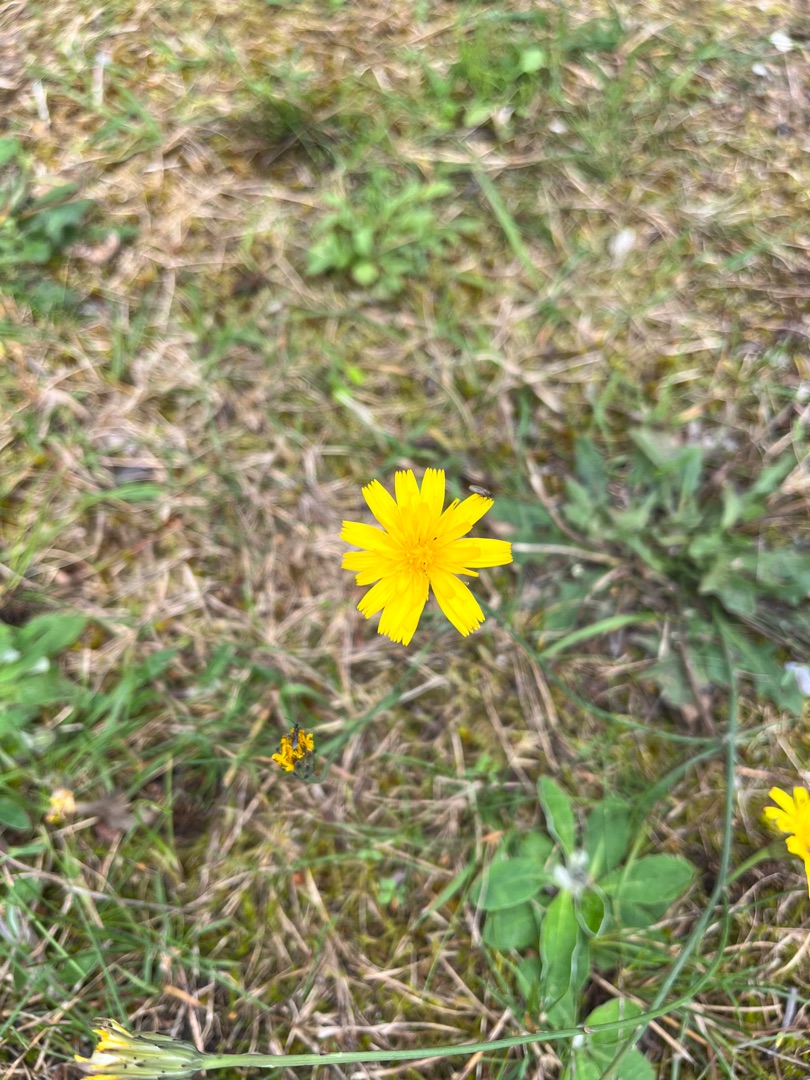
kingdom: Plantae
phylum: Tracheophyta
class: Magnoliopsida
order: Asterales
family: Asteraceae
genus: Hypochaeris
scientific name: Hypochaeris radicata
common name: Almindelig kongepen
